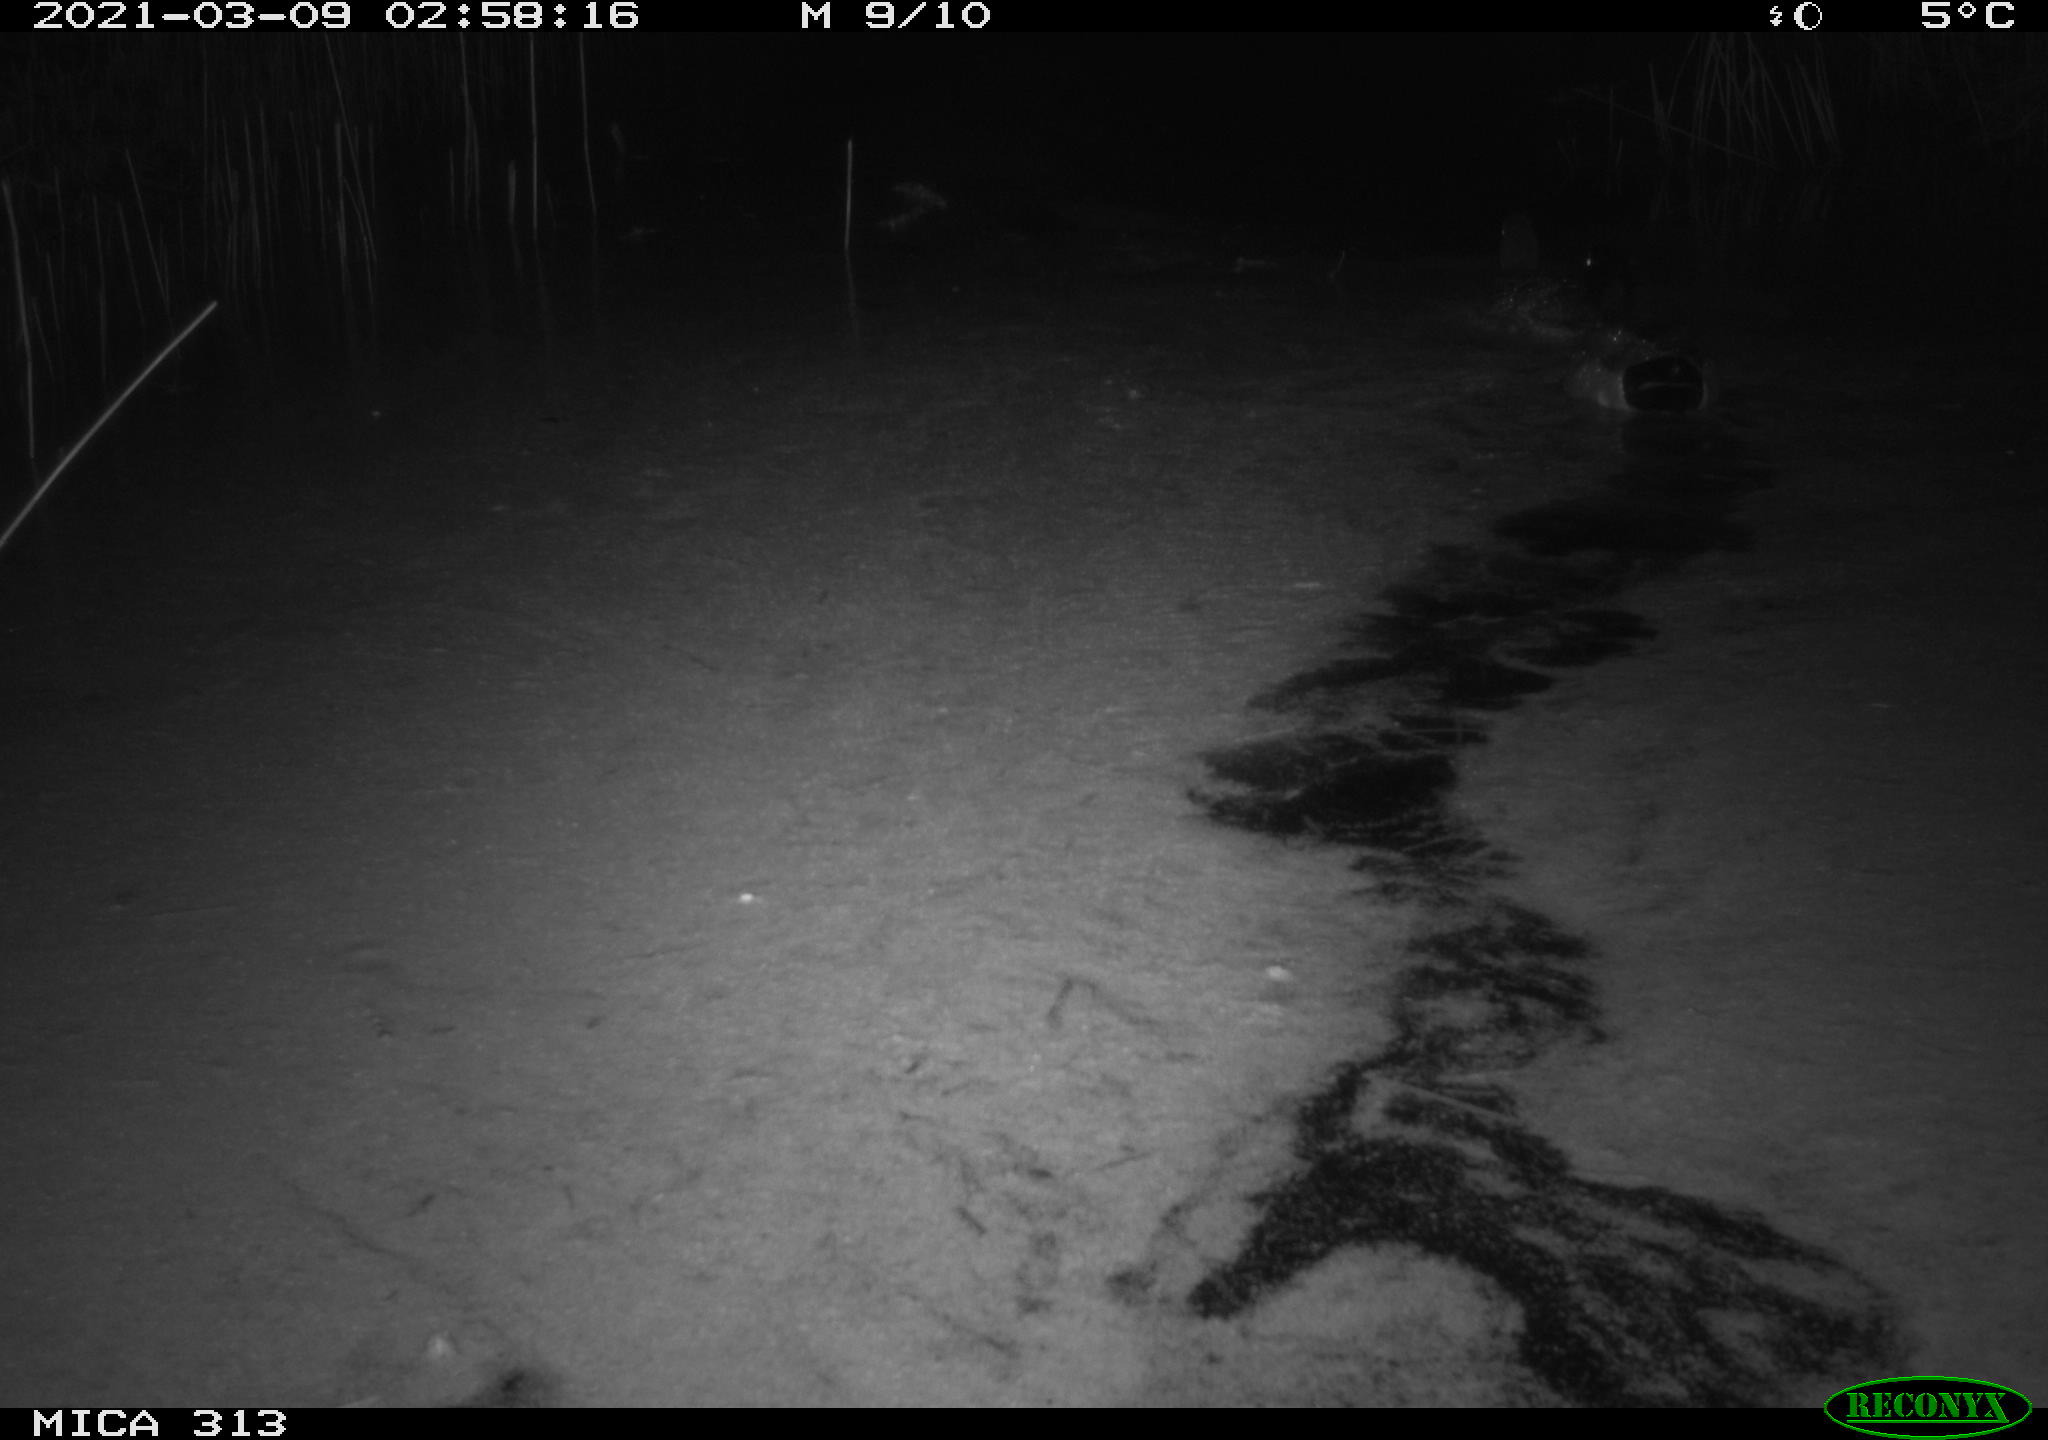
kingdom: Animalia
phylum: Chordata
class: Aves
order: Anseriformes
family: Anatidae
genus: Anas
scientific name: Anas platyrhynchos
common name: Mallard
